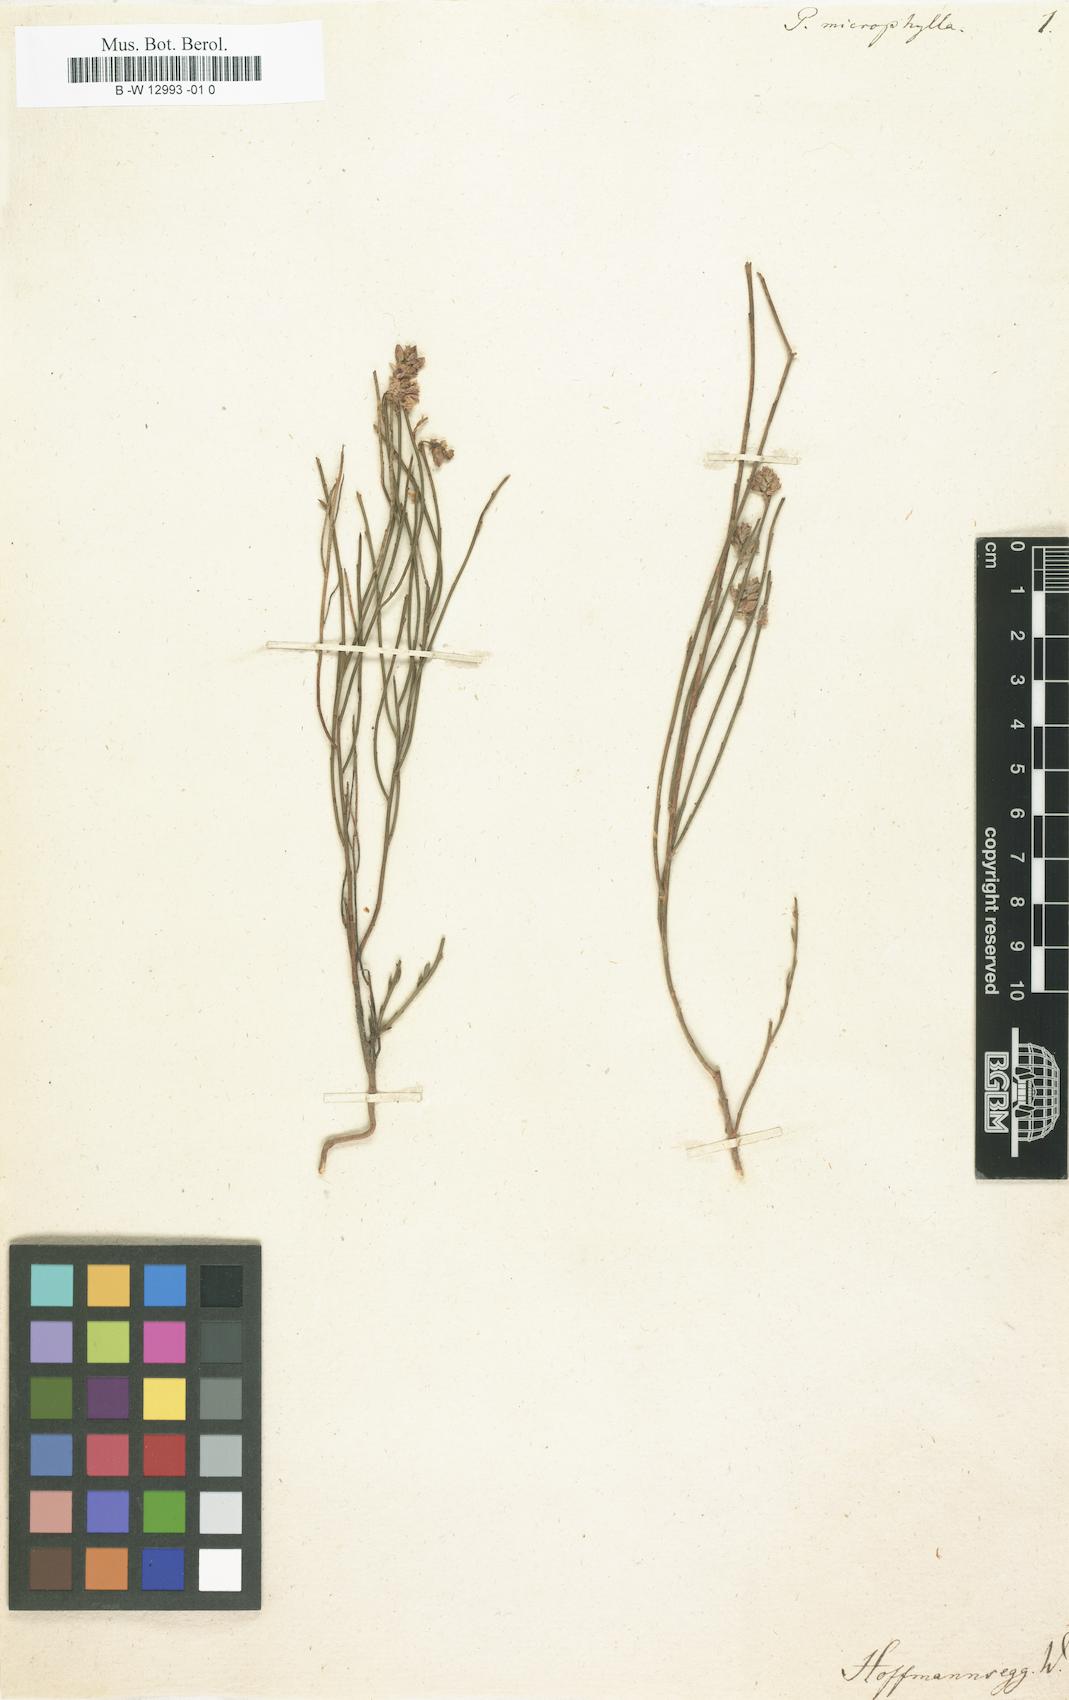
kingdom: Plantae
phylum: Tracheophyta
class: Magnoliopsida
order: Fabales
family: Polygalaceae
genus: Polygala
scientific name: Polygala microphylla
